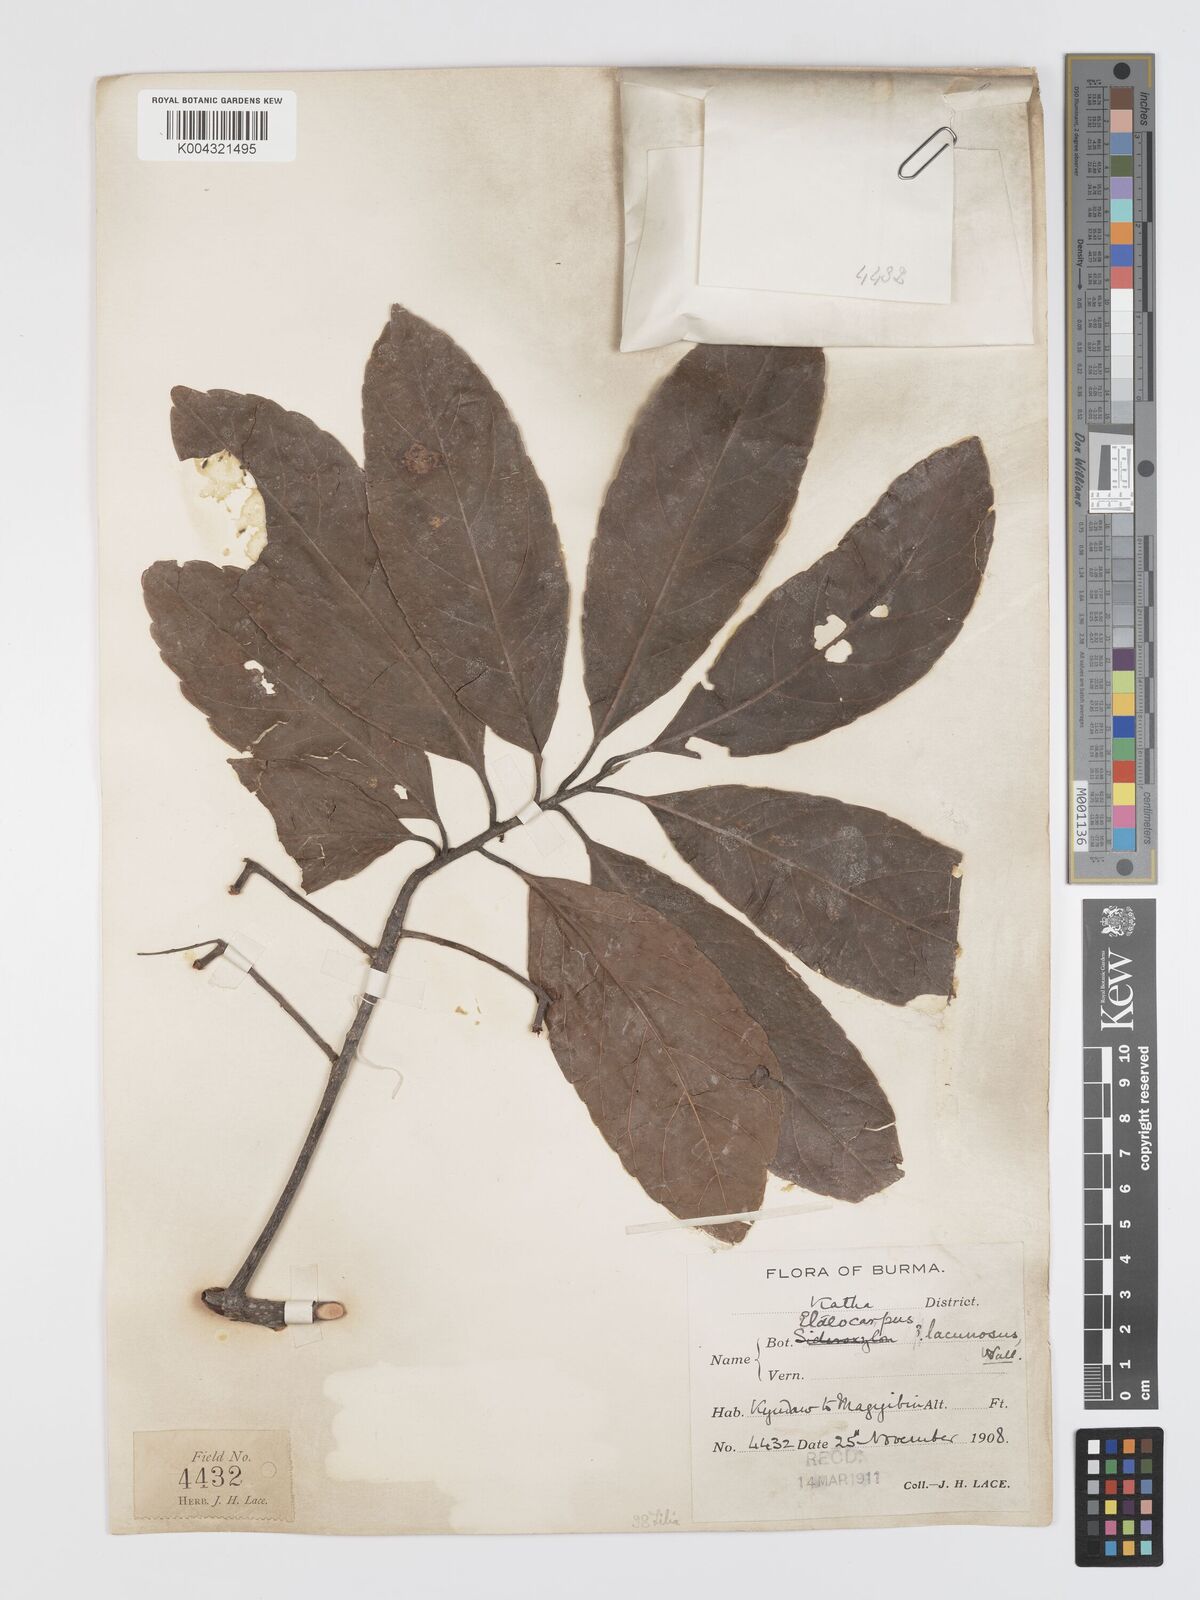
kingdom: Plantae
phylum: Tracheophyta
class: Magnoliopsida
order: Oxalidales
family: Elaeocarpaceae
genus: Elaeocarpus
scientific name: Elaeocarpus lanceifolius
